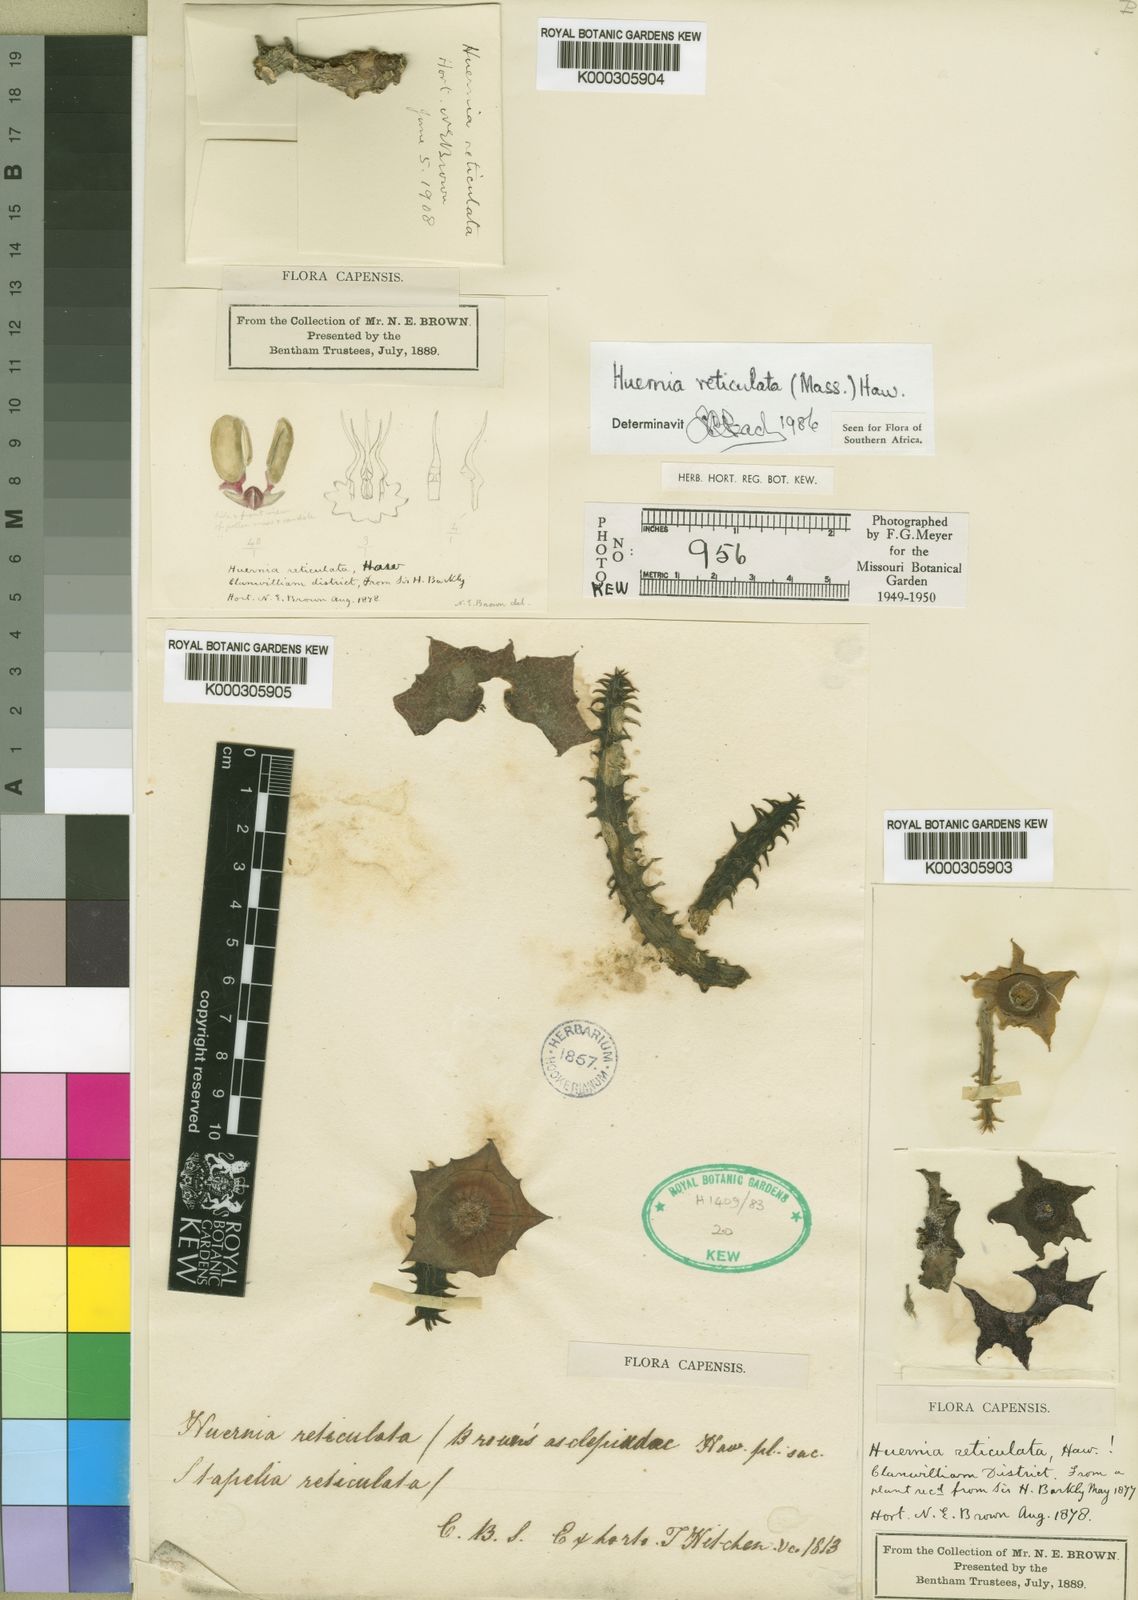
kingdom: Plantae
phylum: Tracheophyta
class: Magnoliopsida
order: Gentianales
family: Apocynaceae
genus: Ceropegia
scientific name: Ceropegia guttata
